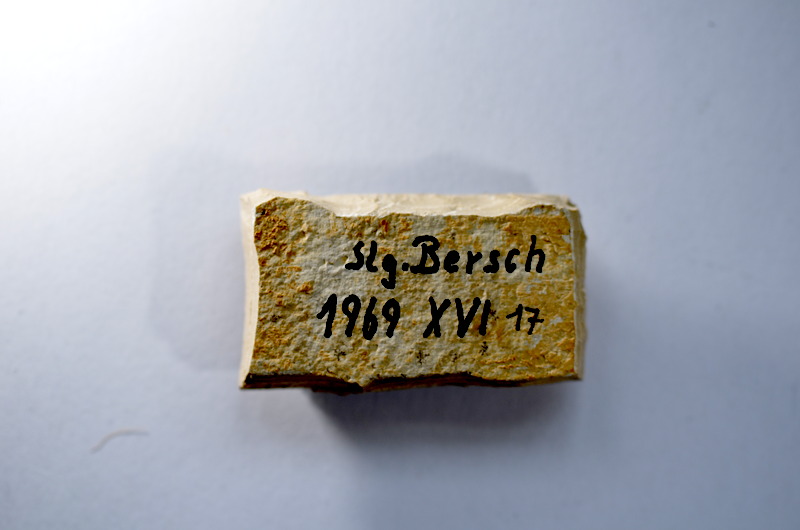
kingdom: Animalia
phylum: Chordata
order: Salmoniformes
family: Orthogonikleithridae
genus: Leptolepides
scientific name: Leptolepides
